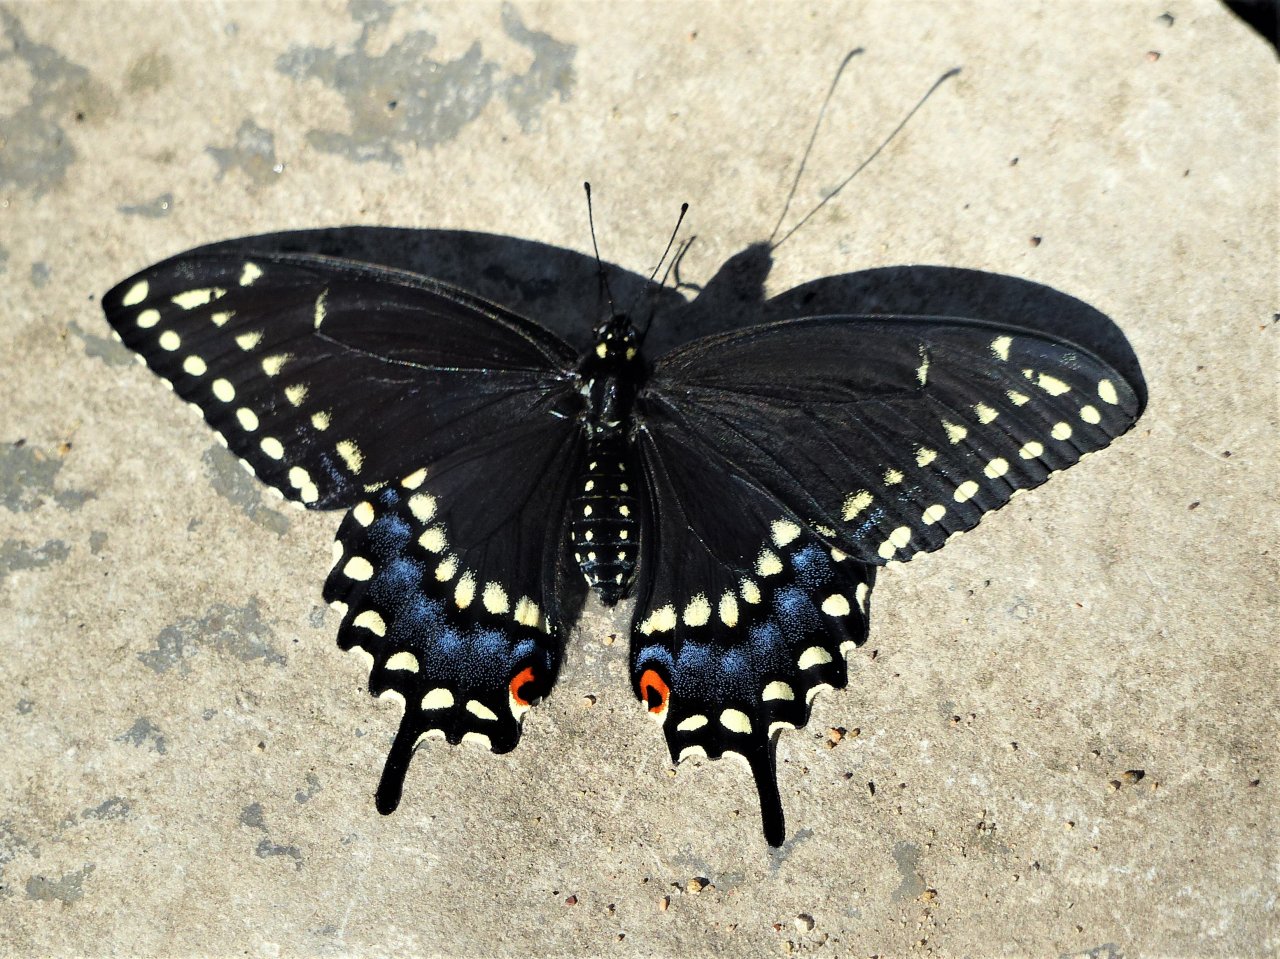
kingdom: Animalia
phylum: Arthropoda
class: Insecta
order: Lepidoptera
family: Papilionidae
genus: Papilio
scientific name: Papilio polyxenes
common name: Black Swallowtail
